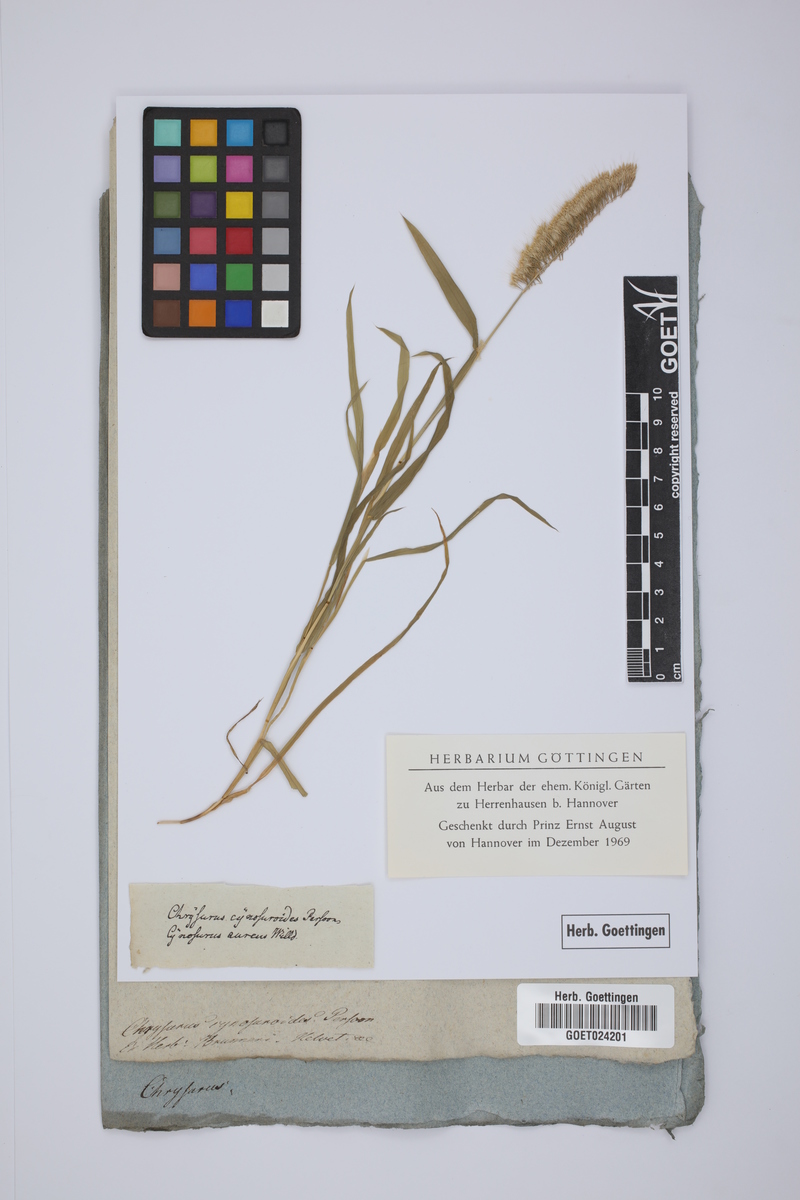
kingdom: Plantae
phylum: Tracheophyta
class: Liliopsida
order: Poales
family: Poaceae
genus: Lamarckia
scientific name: Lamarckia aurea
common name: Golden dog's-tail
